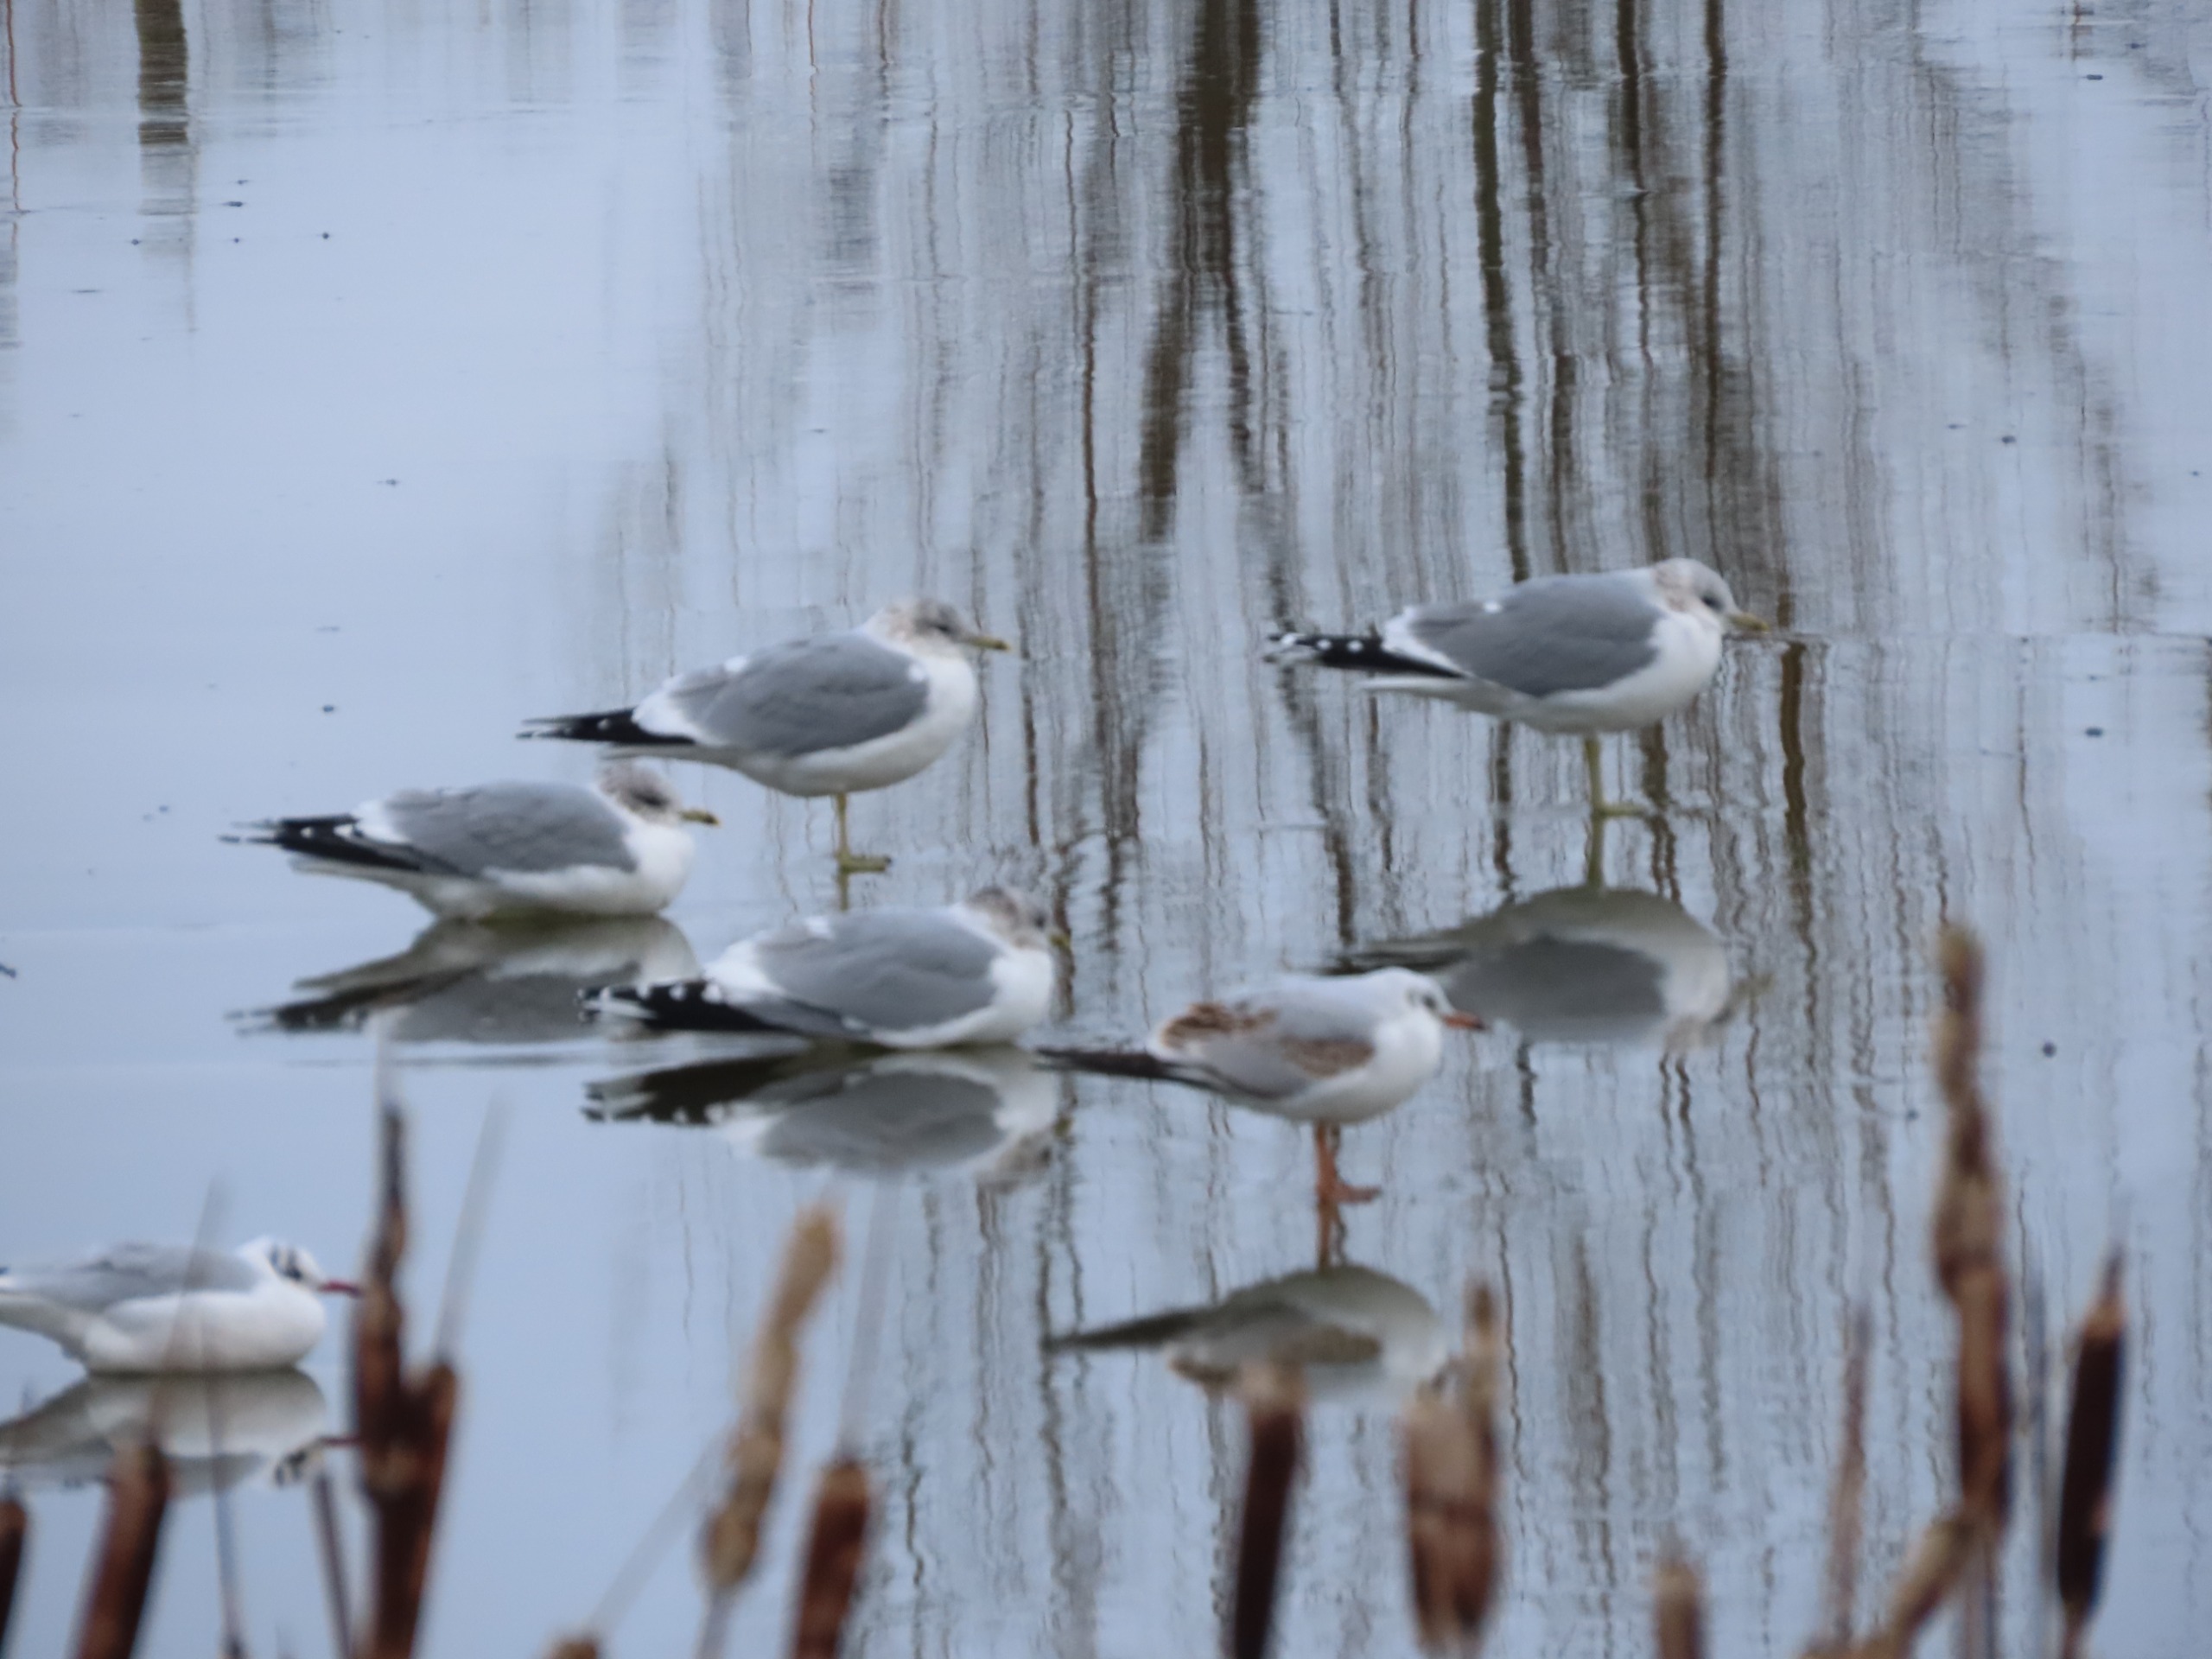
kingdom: Animalia
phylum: Chordata
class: Aves
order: Charadriiformes
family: Laridae
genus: Larus
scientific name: Larus canus
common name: Stormmåge
